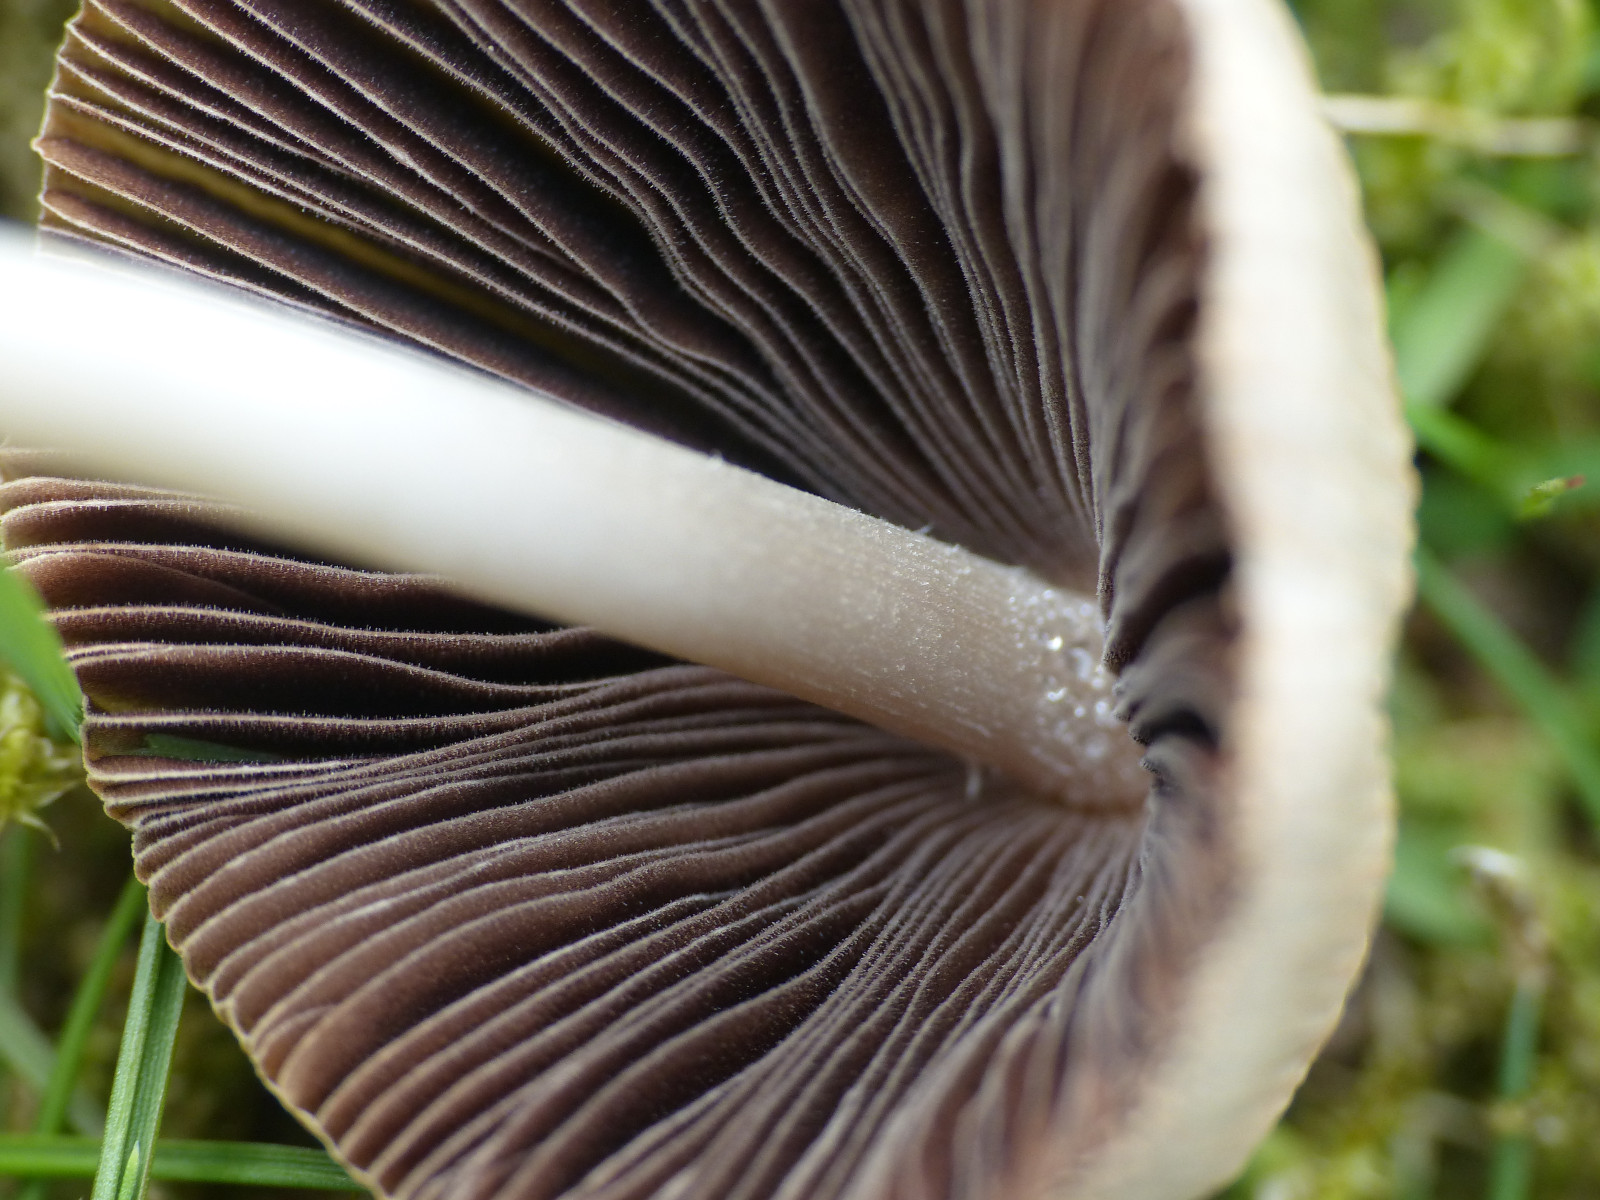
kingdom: Fungi
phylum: Basidiomycota
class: Agaricomycetes
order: Agaricales
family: Psathyrellaceae
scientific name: Psathyrellaceae
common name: mørkhatfamilien
